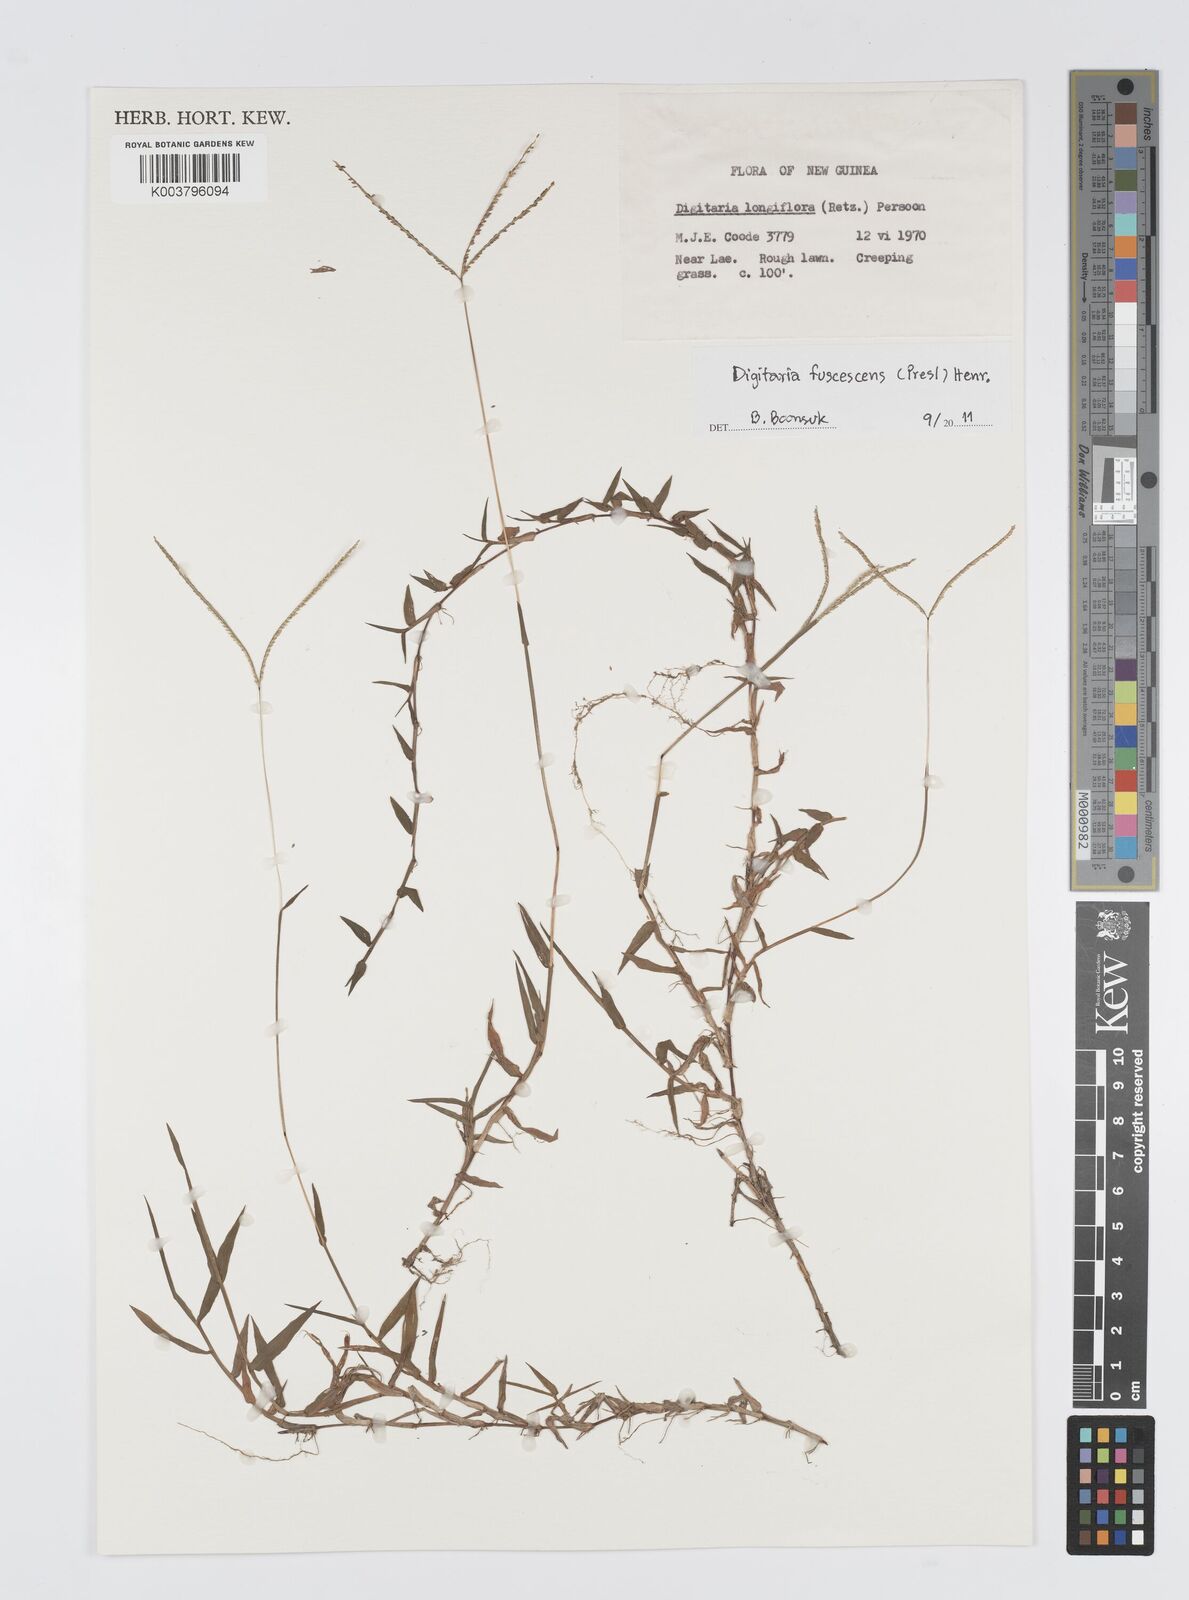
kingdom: Plantae
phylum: Tracheophyta
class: Liliopsida
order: Poales
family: Poaceae
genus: Digitaria
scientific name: Digitaria fuscescens
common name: Yellow crabgrass
